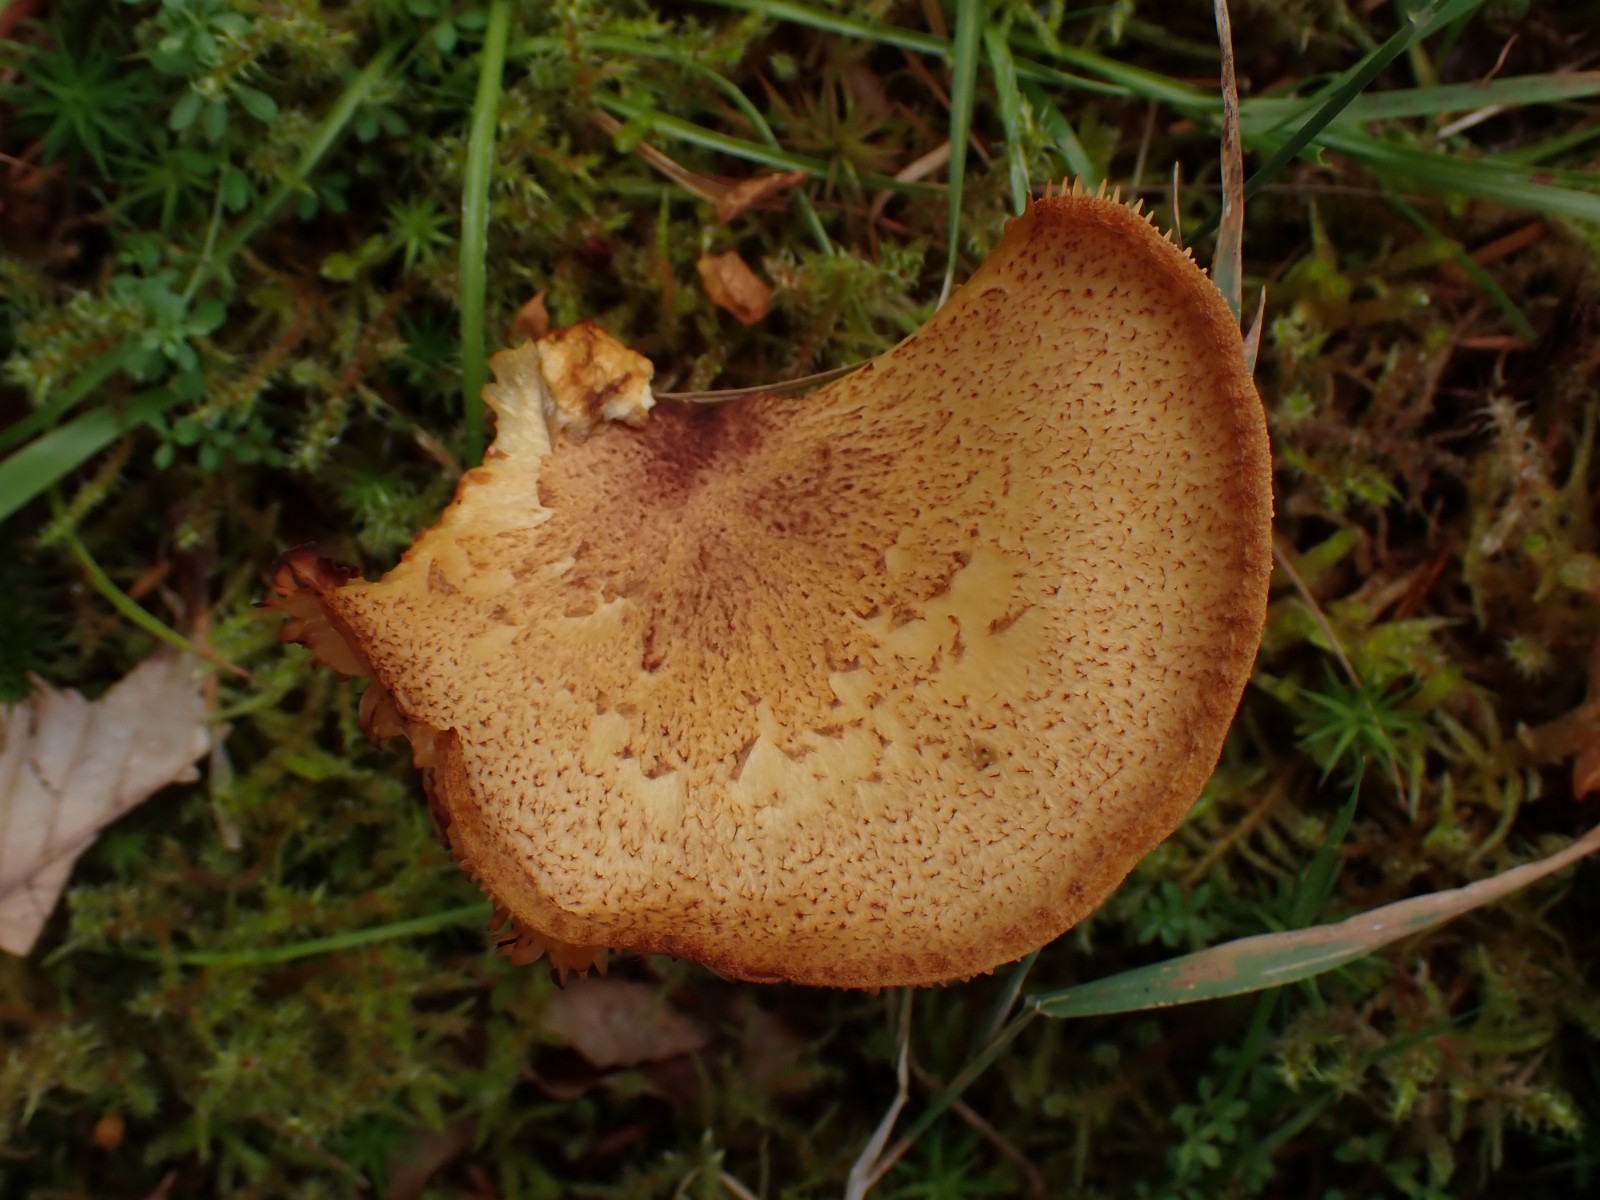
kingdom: Fungi
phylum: Basidiomycota
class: Agaricomycetes
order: Agaricales
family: Tricholomataceae
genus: Tricholomopsis
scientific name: Tricholomopsis rutilans
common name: purpur-væbnerhat
